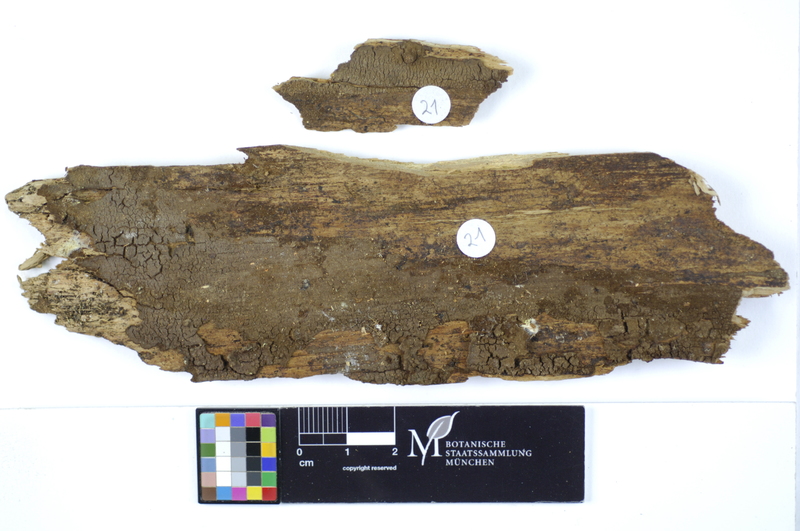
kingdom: Plantae
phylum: Tracheophyta
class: Pinopsida
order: Pinales
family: Pinaceae
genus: Picea
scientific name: Picea
